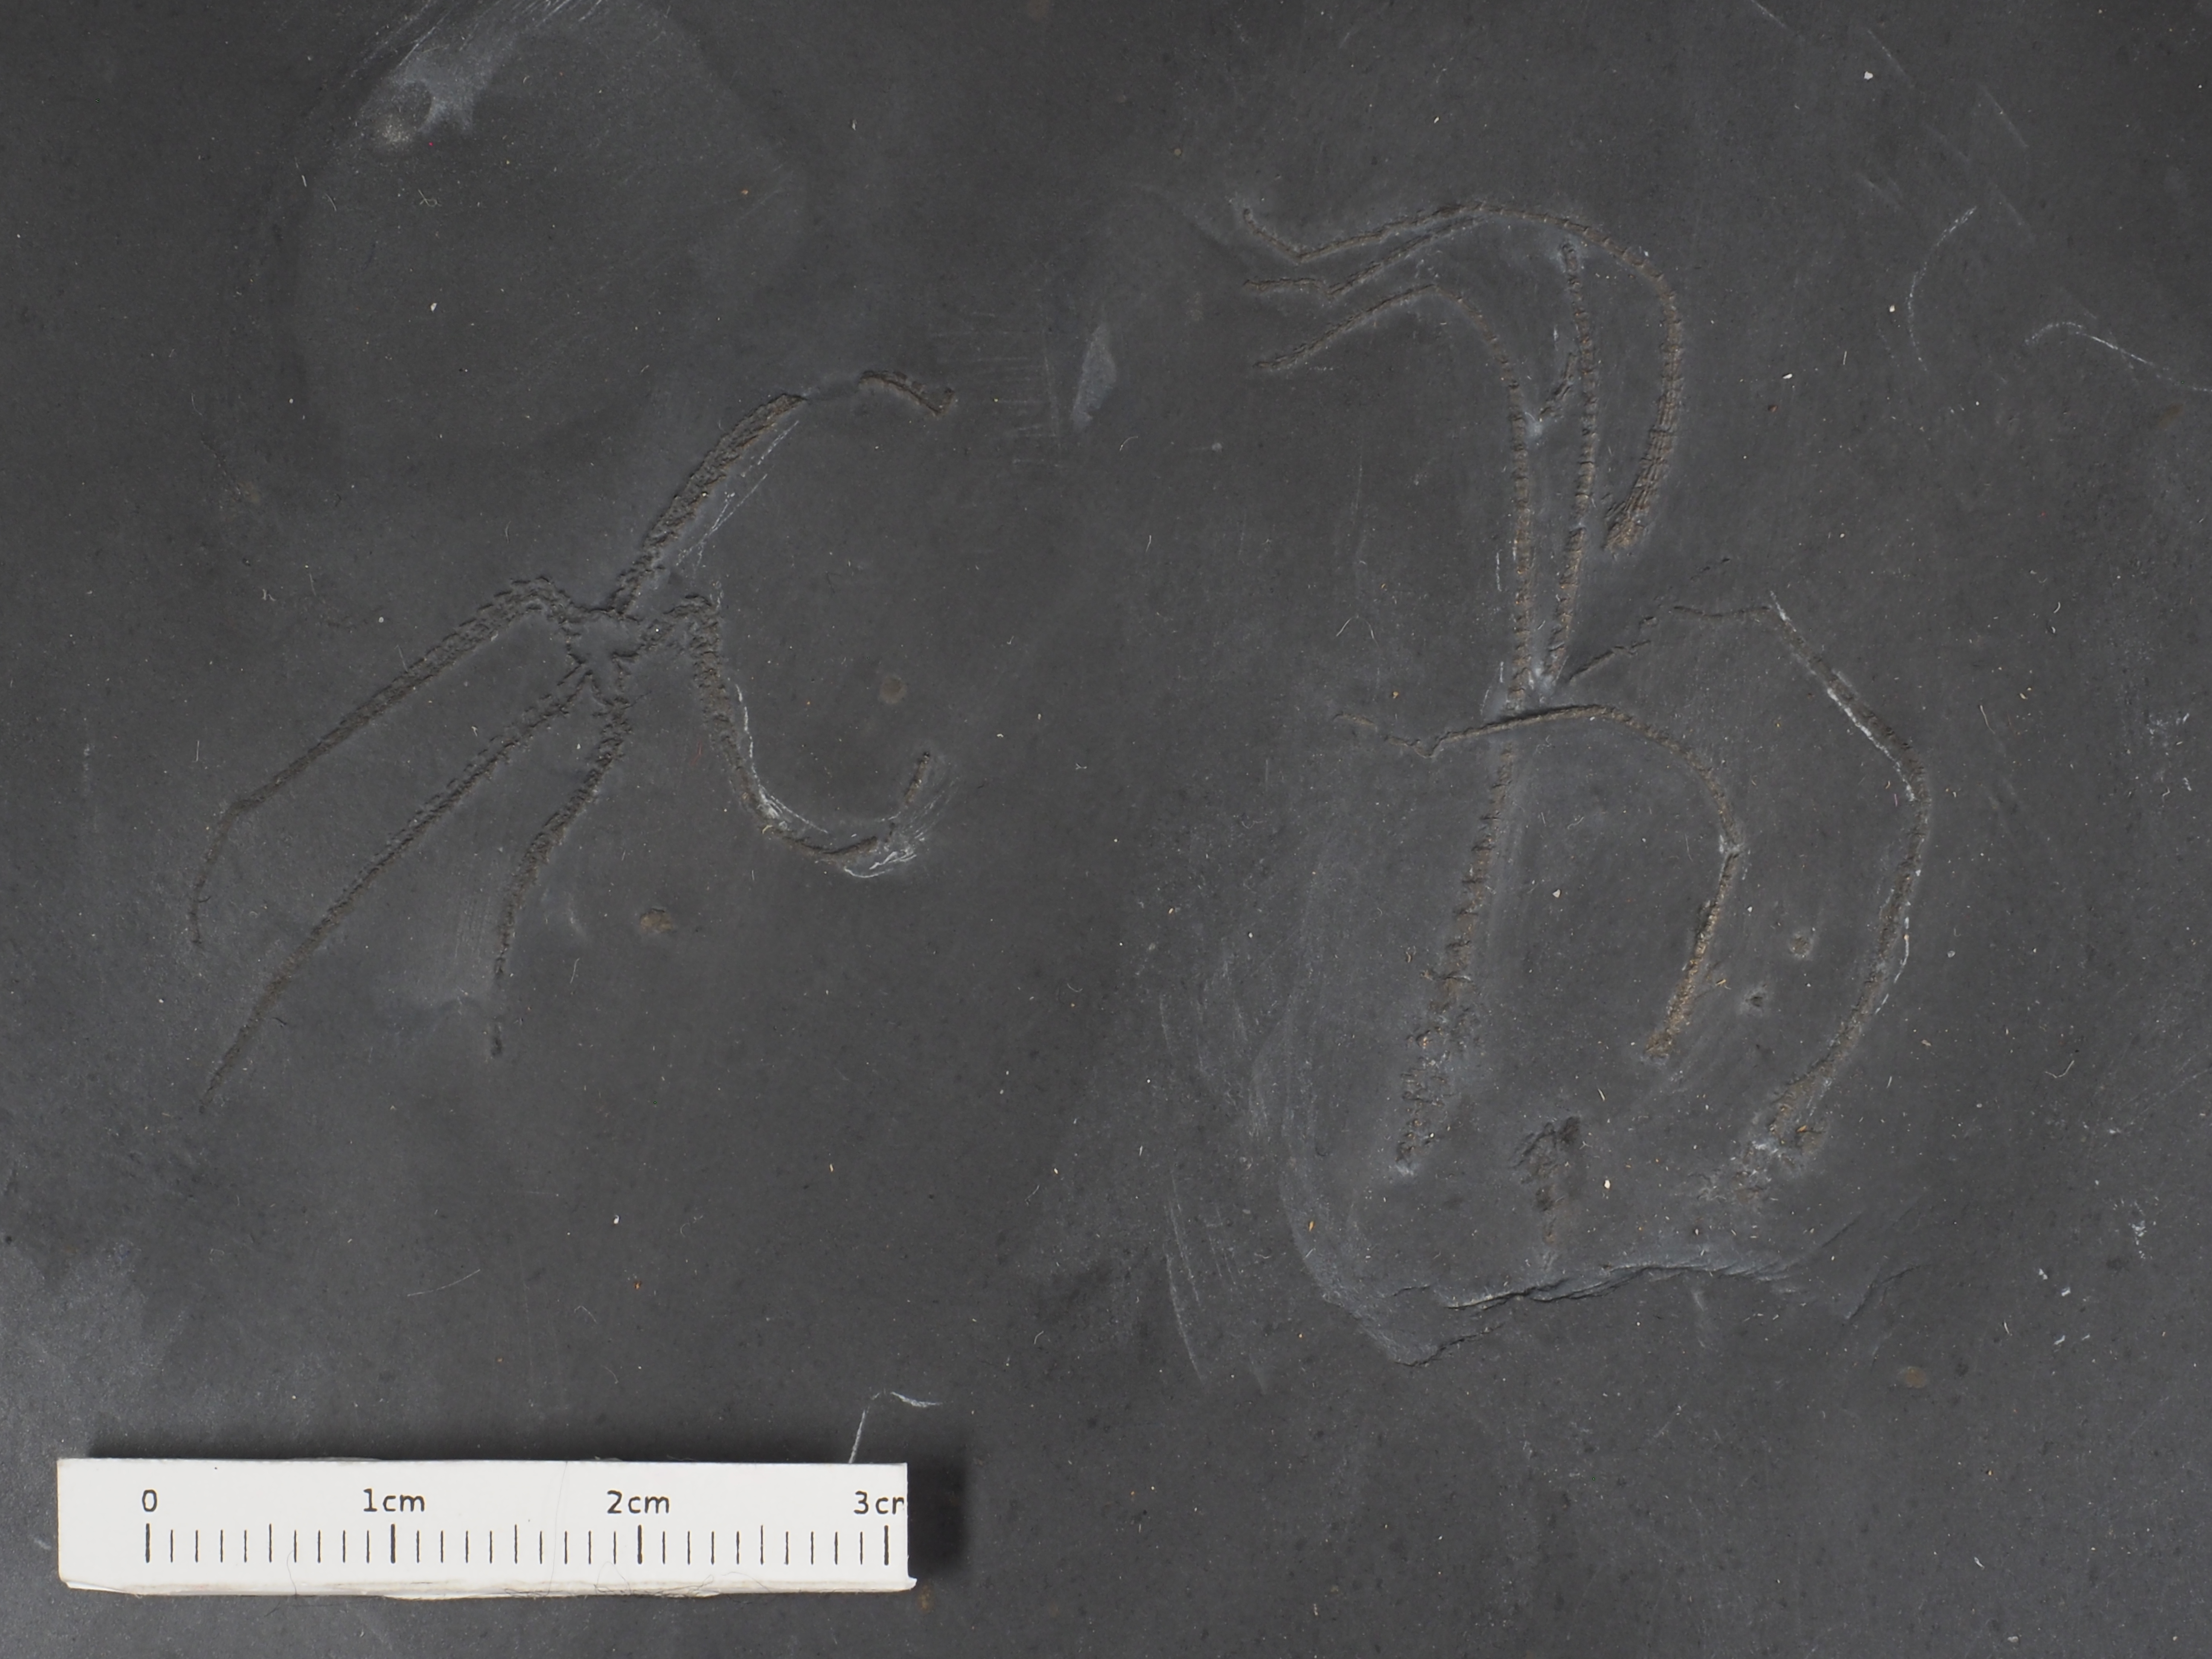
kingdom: Animalia
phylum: Echinodermata
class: Ophiuroidea
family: Furcasteridae
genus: Furcaster
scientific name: Furcaster
